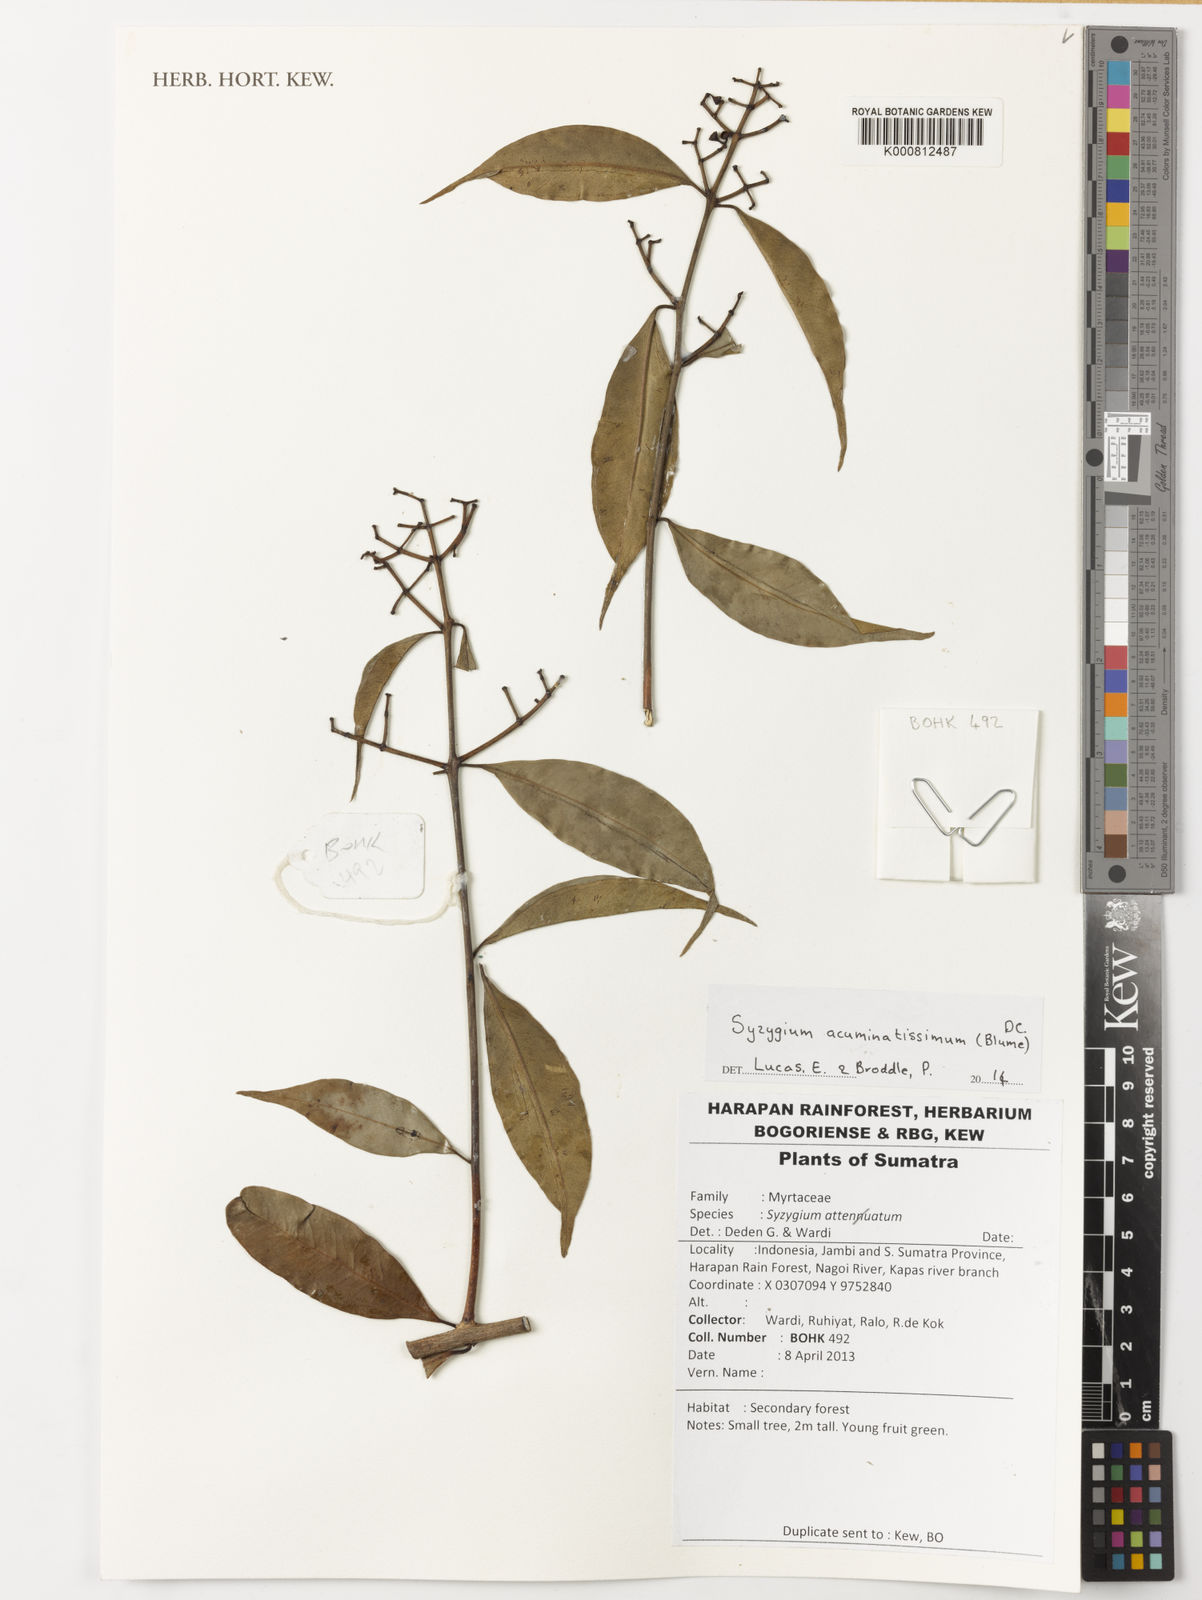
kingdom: Plantae
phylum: Tracheophyta
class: Magnoliopsida
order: Myrtales
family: Myrtaceae
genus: Syzygium
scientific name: Syzygium acuminatissimum
